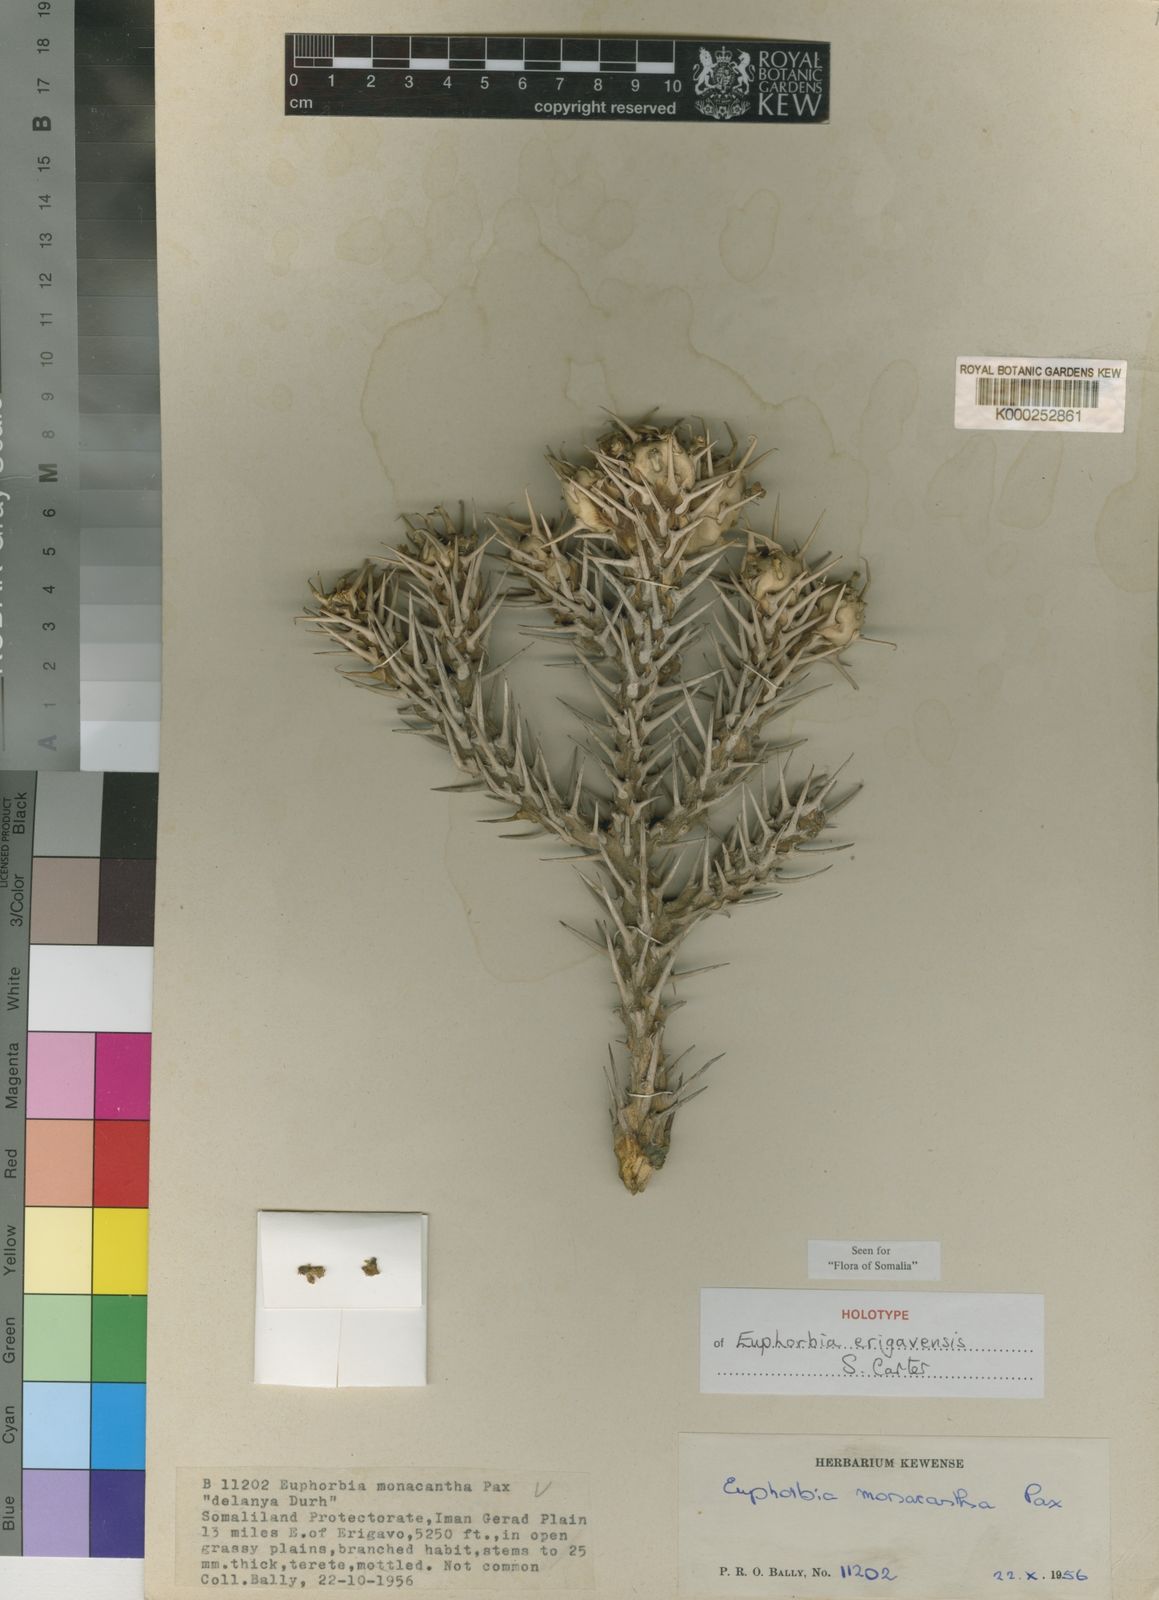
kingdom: Plantae
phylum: Tracheophyta
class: Magnoliopsida
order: Malpighiales
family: Euphorbiaceae
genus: Euphorbia
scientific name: Euphorbia erigavensis
